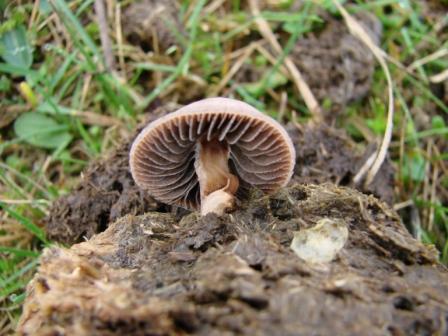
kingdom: Fungi
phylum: Basidiomycota
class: Agaricomycetes
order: Agaricales
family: Bolbitiaceae
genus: Panaeolus
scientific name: Panaeolus subfirmus
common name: fælled-glanshat
